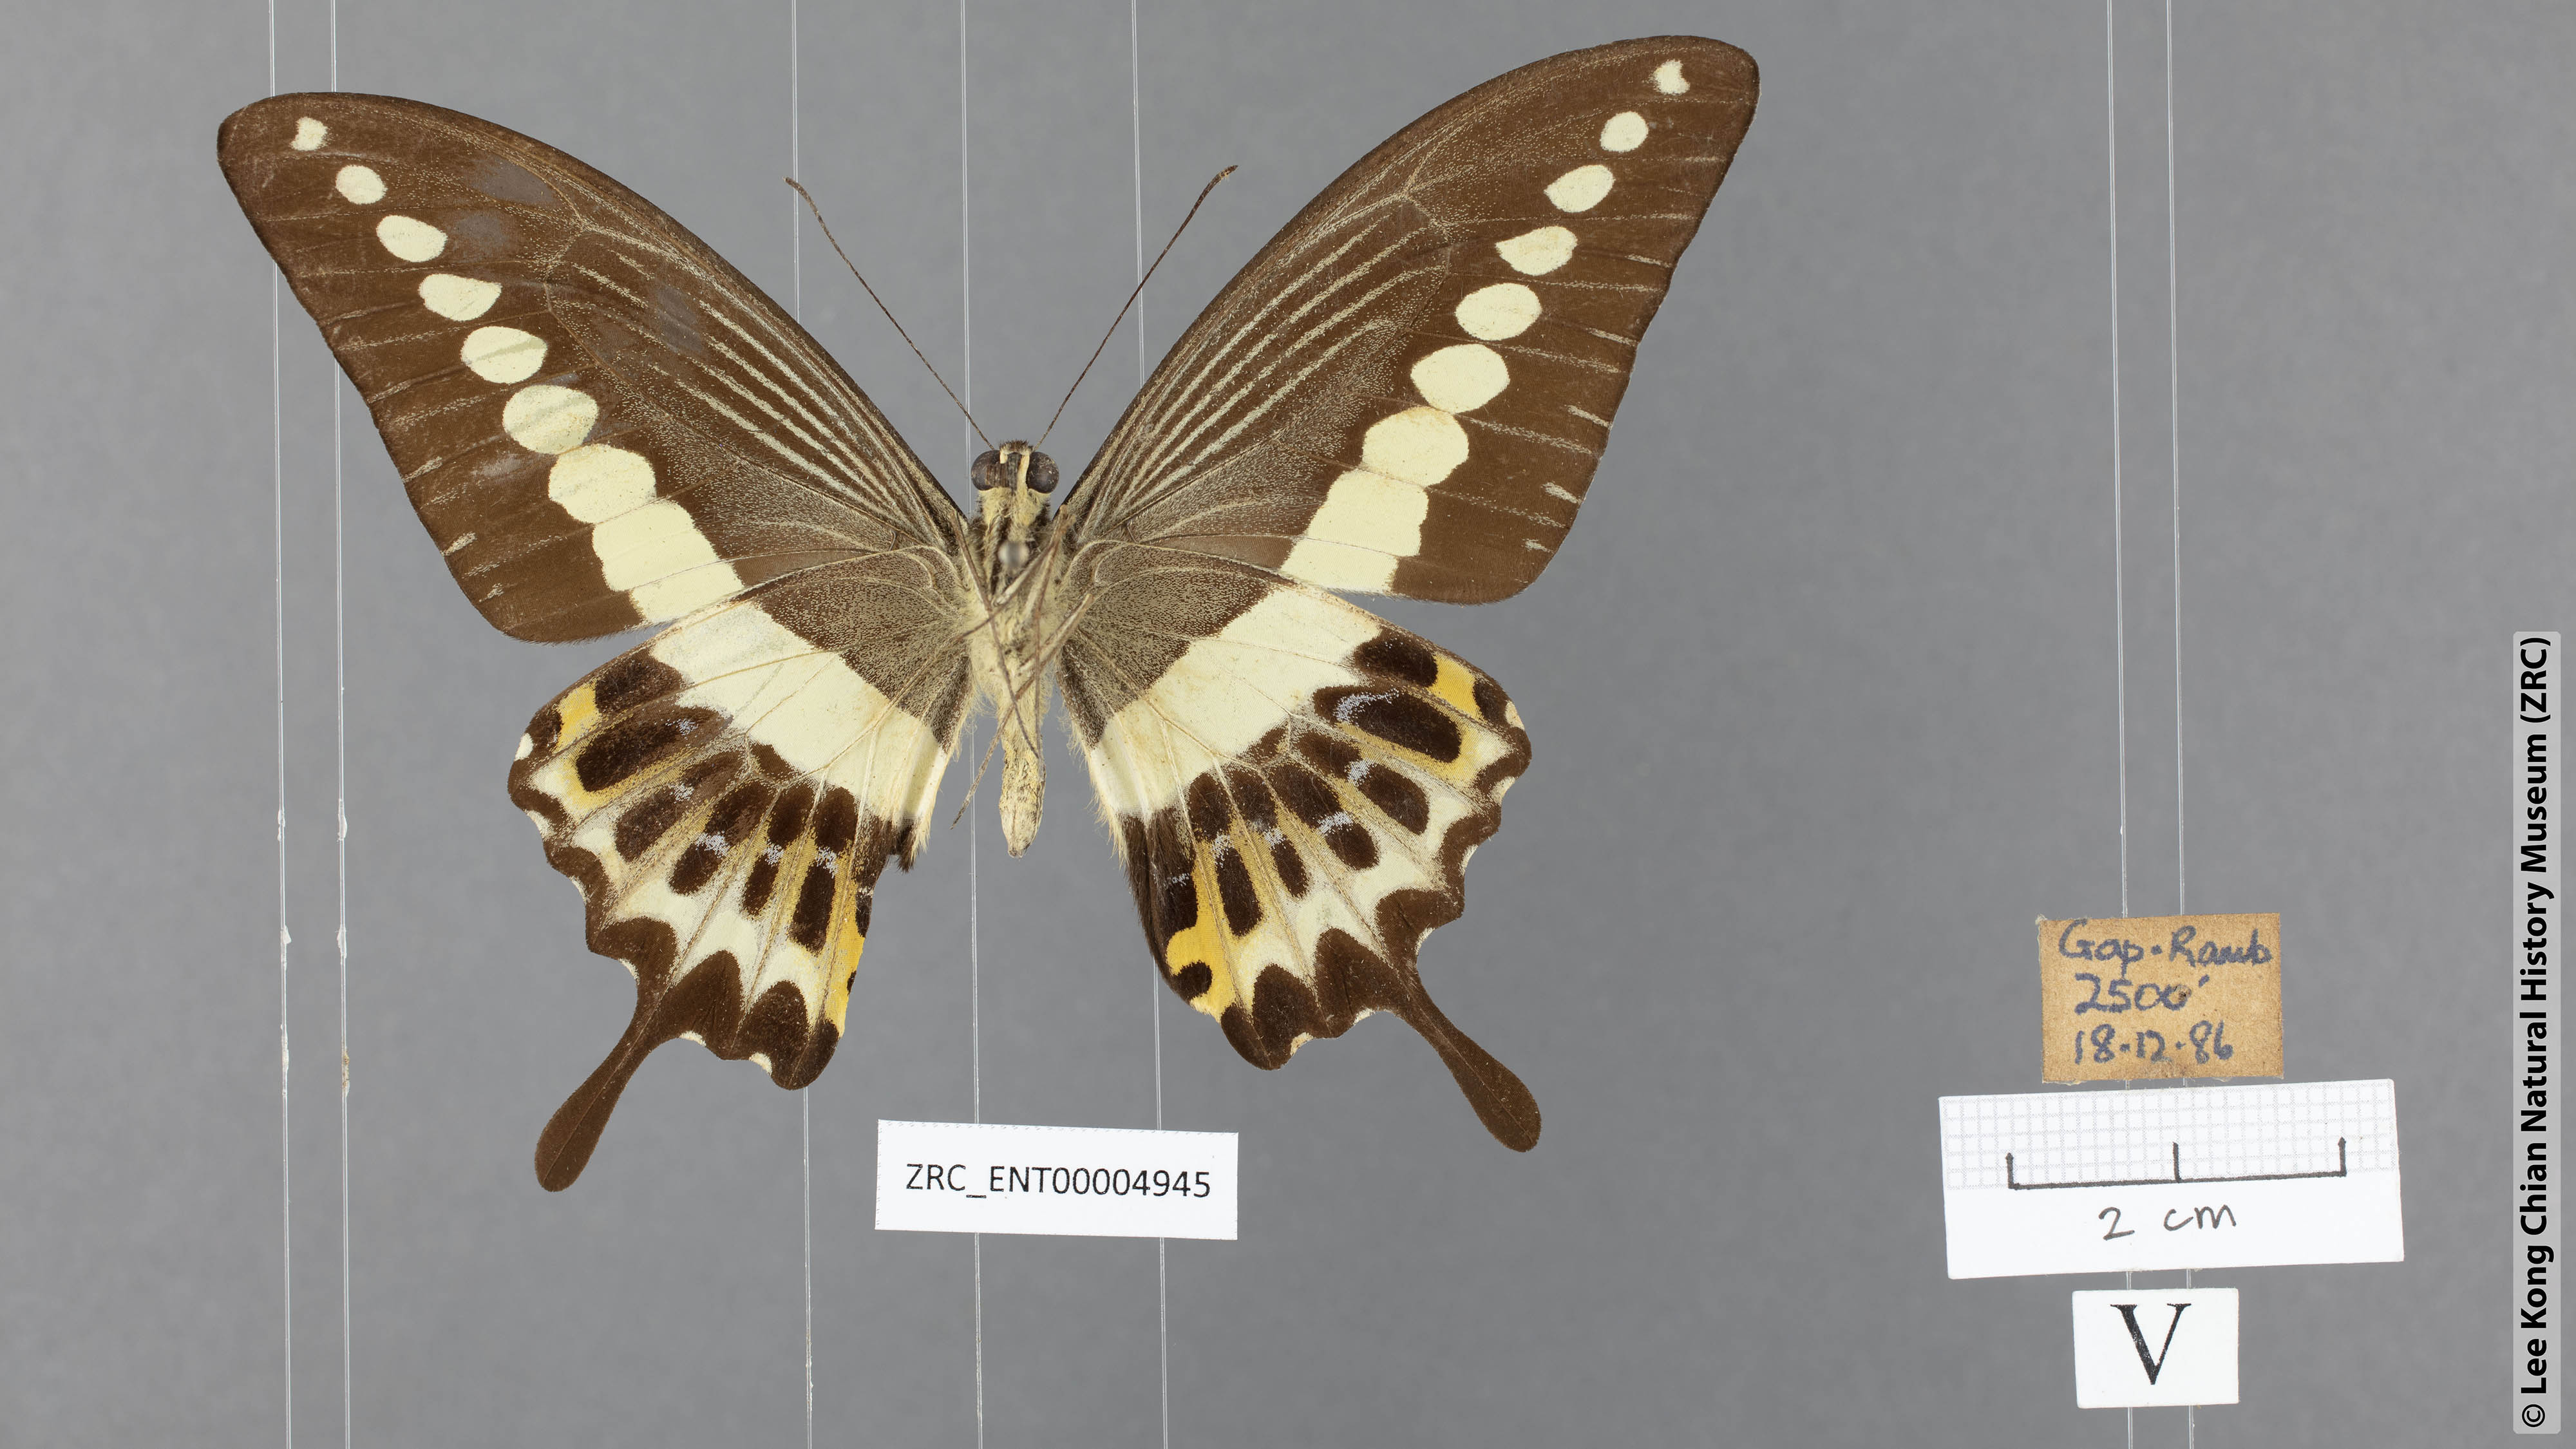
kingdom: Animalia
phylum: Arthropoda
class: Insecta
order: Lepidoptera
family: Papilionidae
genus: Papilio
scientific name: Papilio demolion
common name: Banded swallowtail
